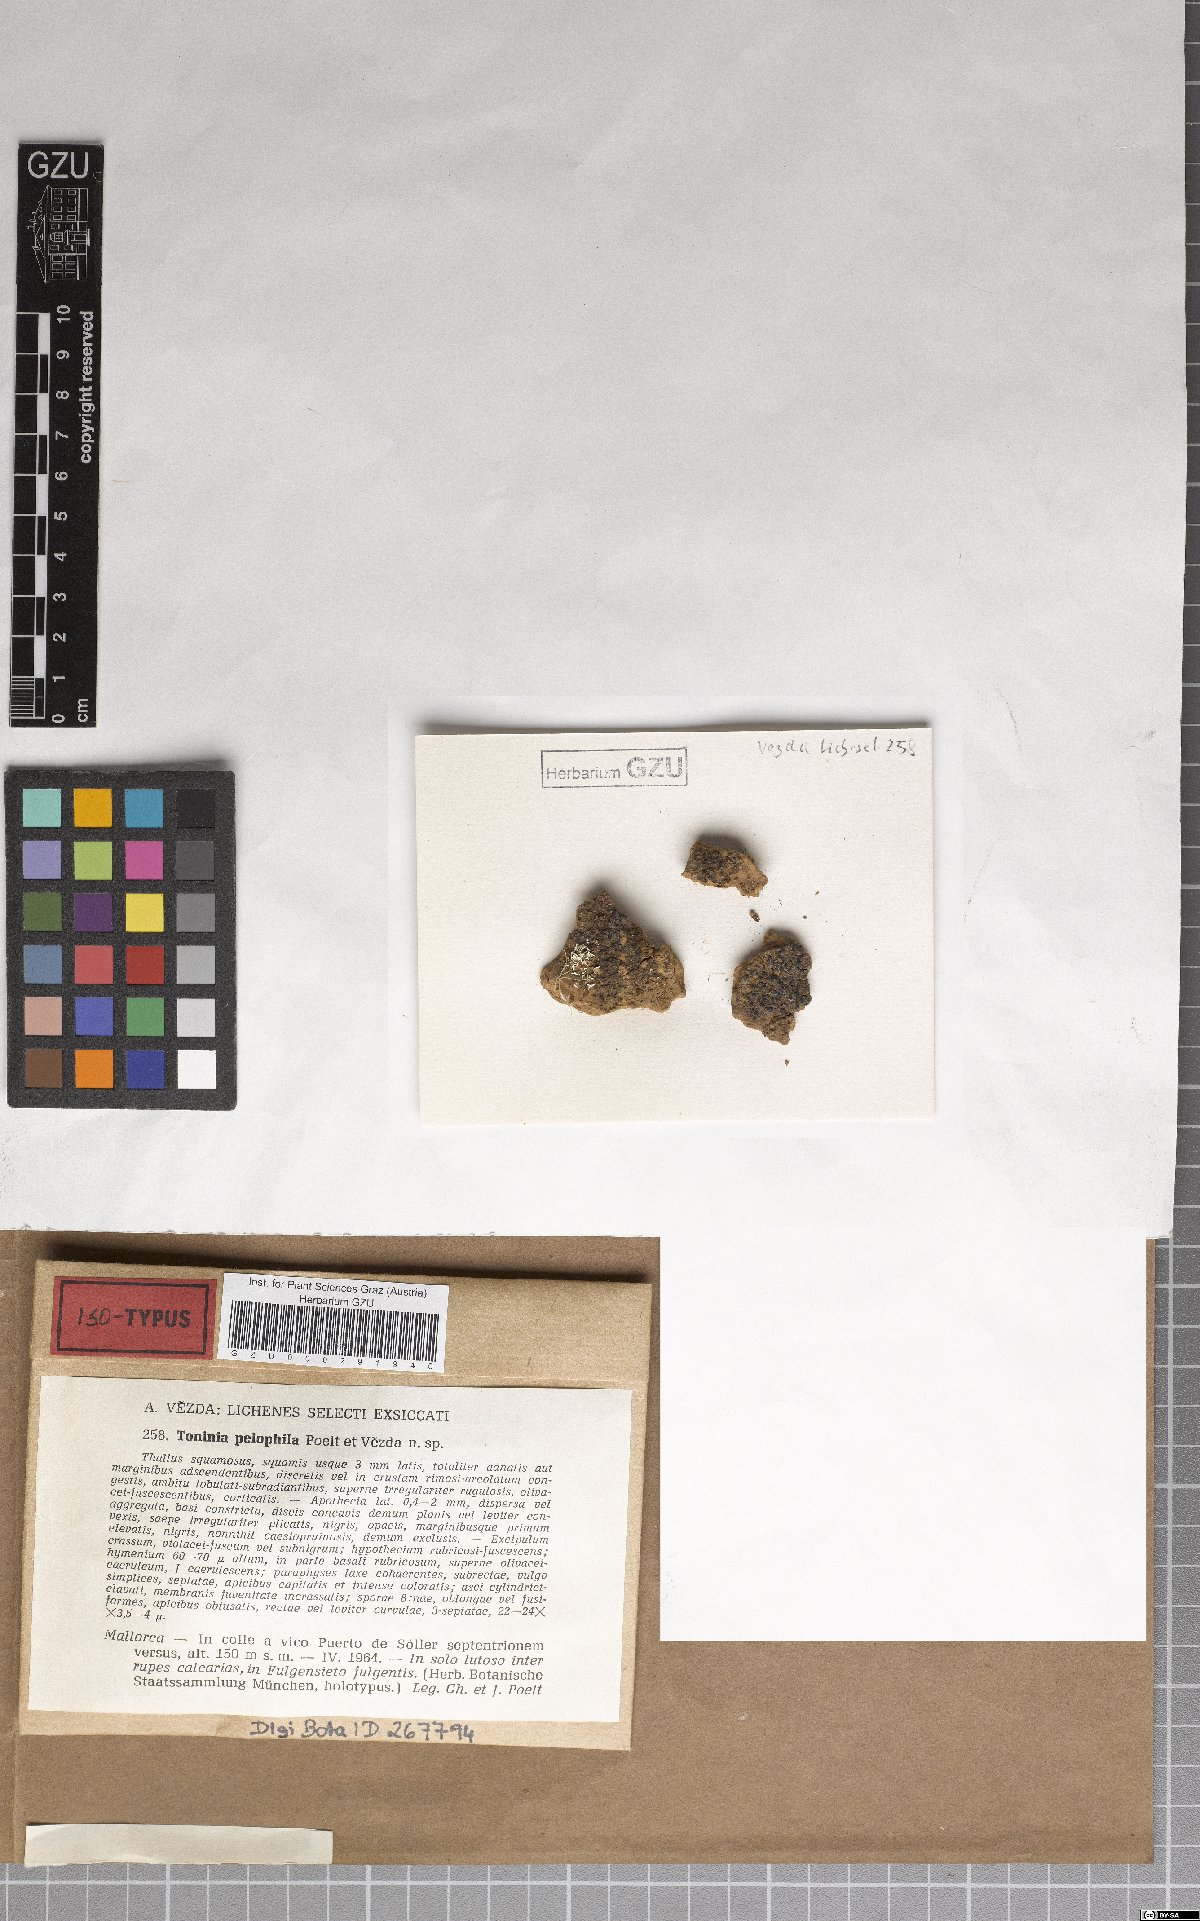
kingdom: Fungi
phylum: Ascomycota
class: Lecanoromycetes
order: Lecanorales
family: Ramalinaceae
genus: Toniniopsis
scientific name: Toniniopsis aromatica
